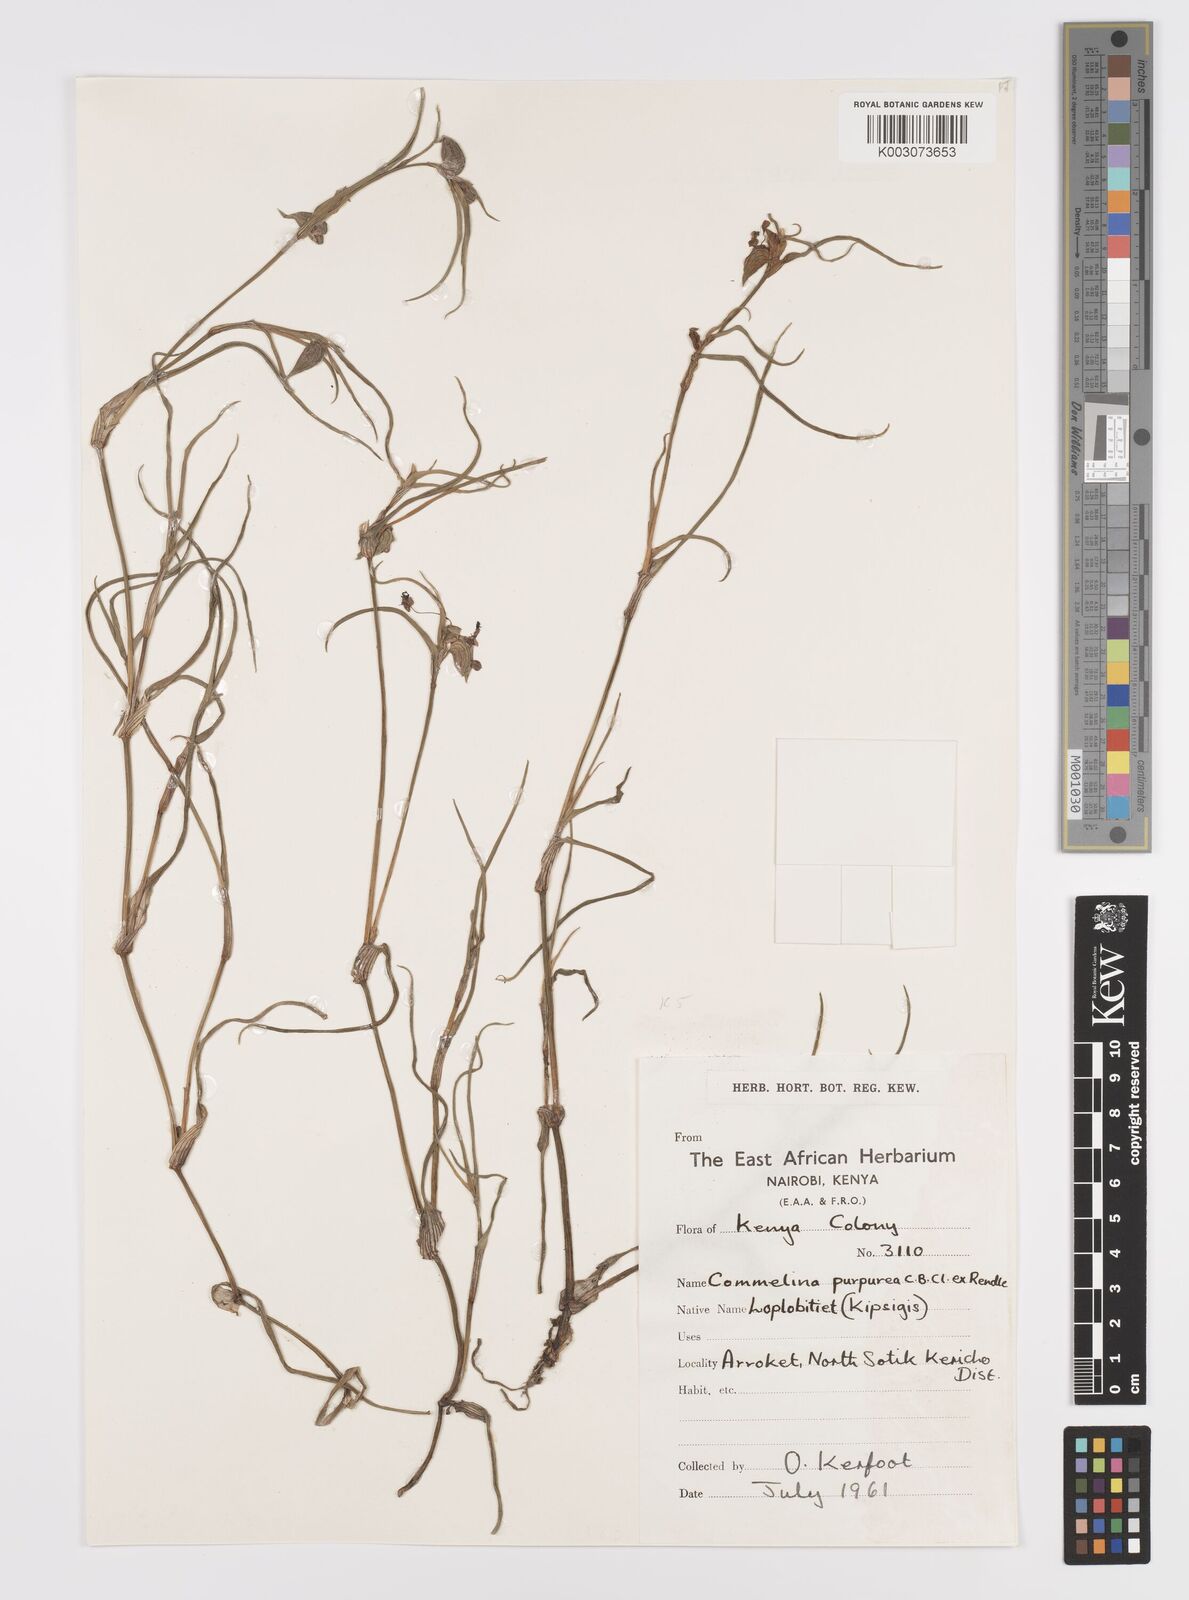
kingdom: Plantae
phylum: Tracheophyta
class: Liliopsida
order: Commelinales
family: Commelinaceae
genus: Commelina
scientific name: Commelina purpurea
